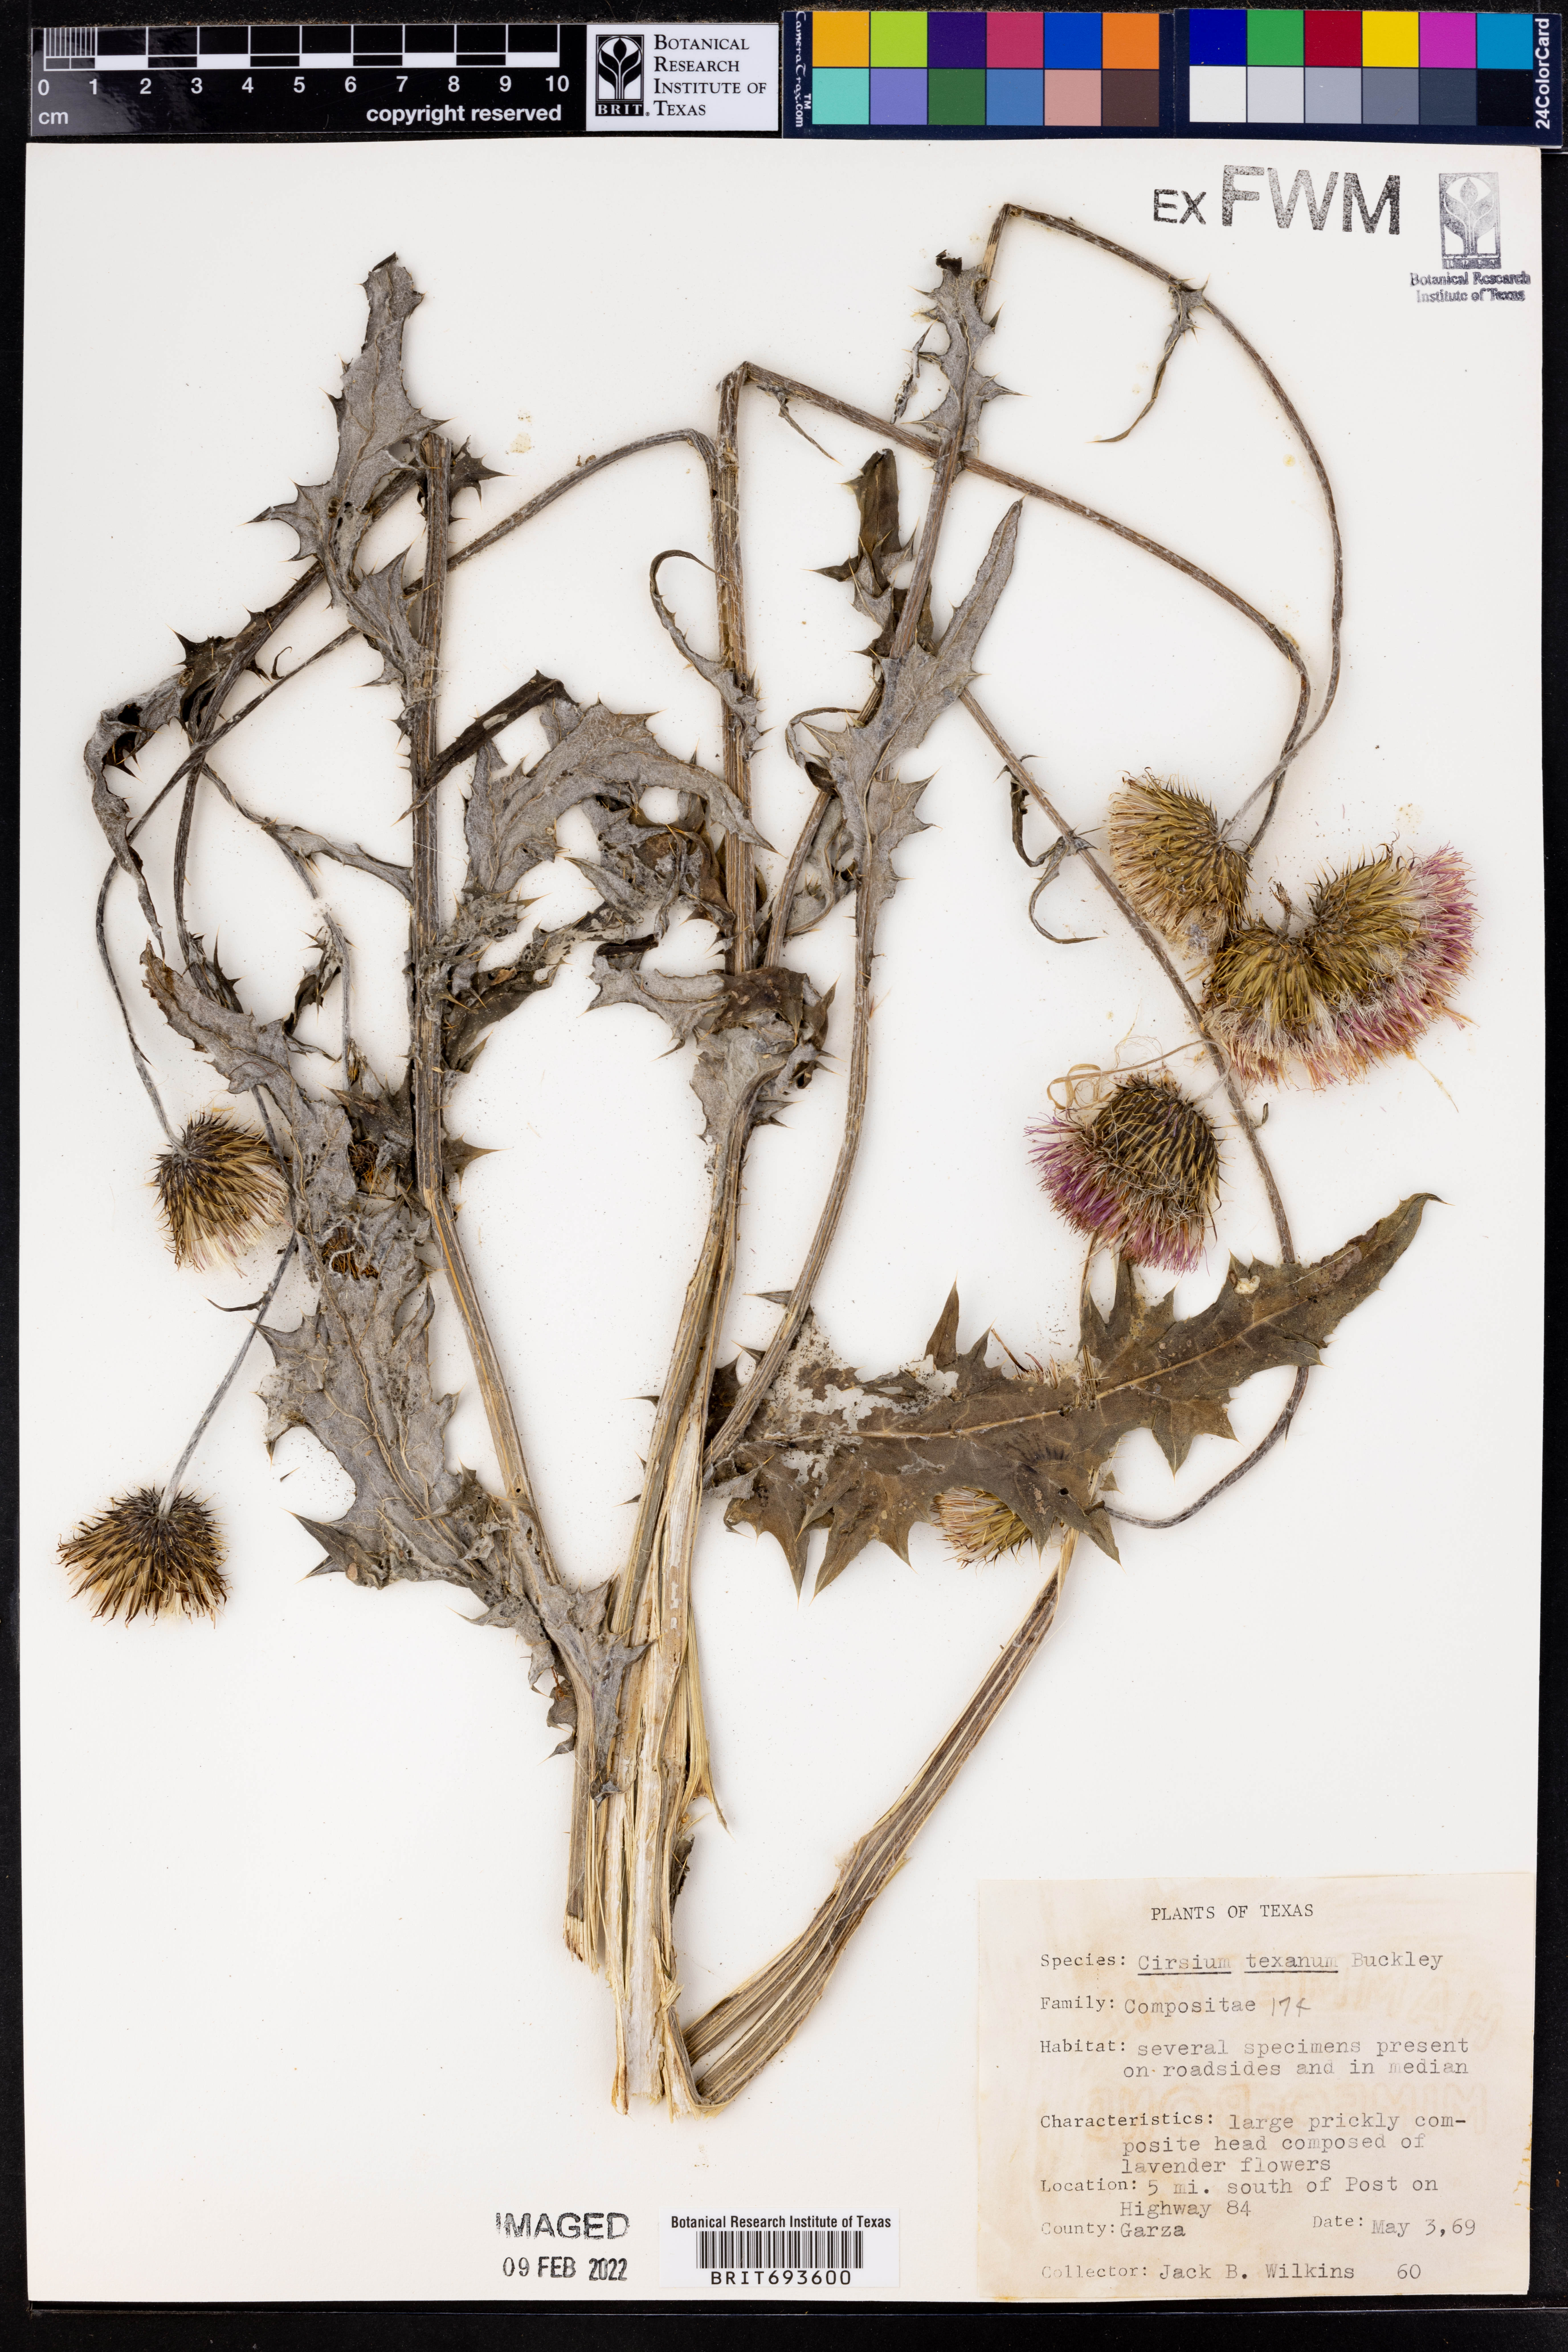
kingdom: Plantae
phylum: Tracheophyta
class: Magnoliopsida
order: Asterales
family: Asteraceae
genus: Cirsium
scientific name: Cirsium texanum
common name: Texas purple thistle
